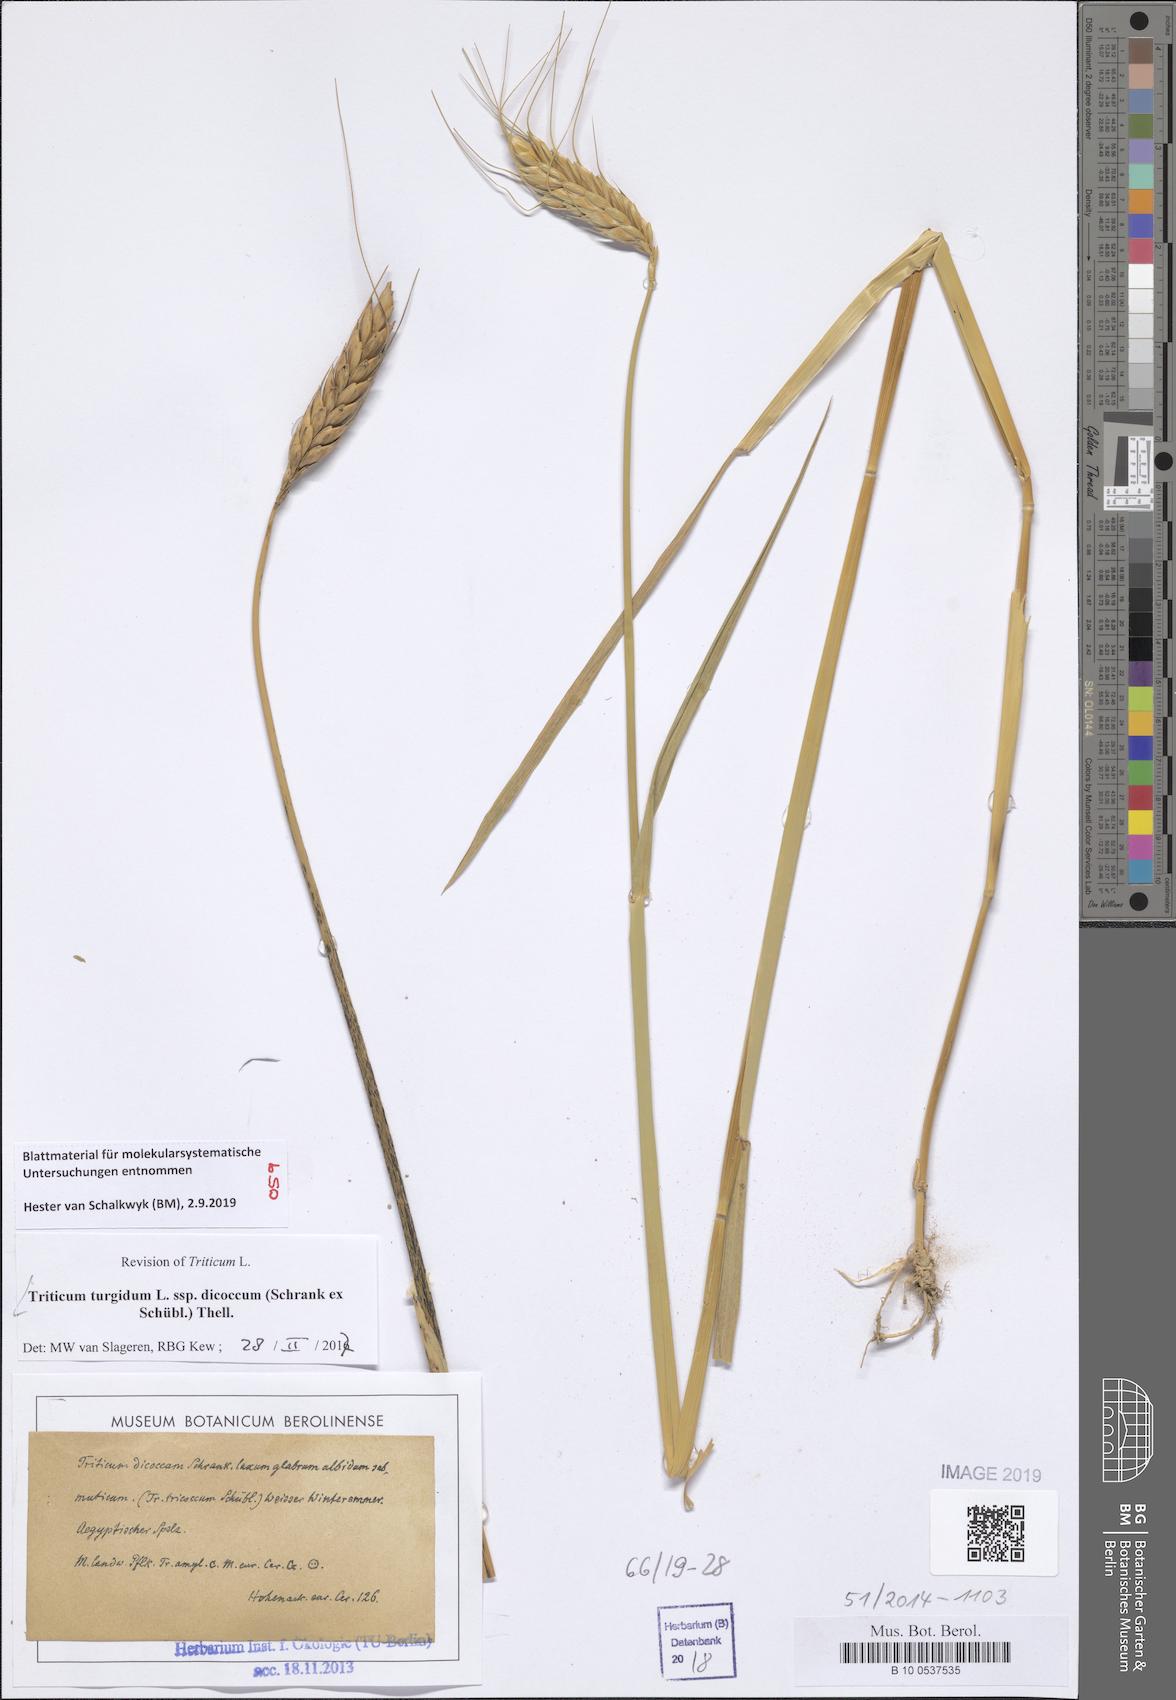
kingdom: Plantae
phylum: Tracheophyta
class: Liliopsida
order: Poales
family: Poaceae
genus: Triticum
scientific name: Triticum turgidum
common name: Rivet wheat
